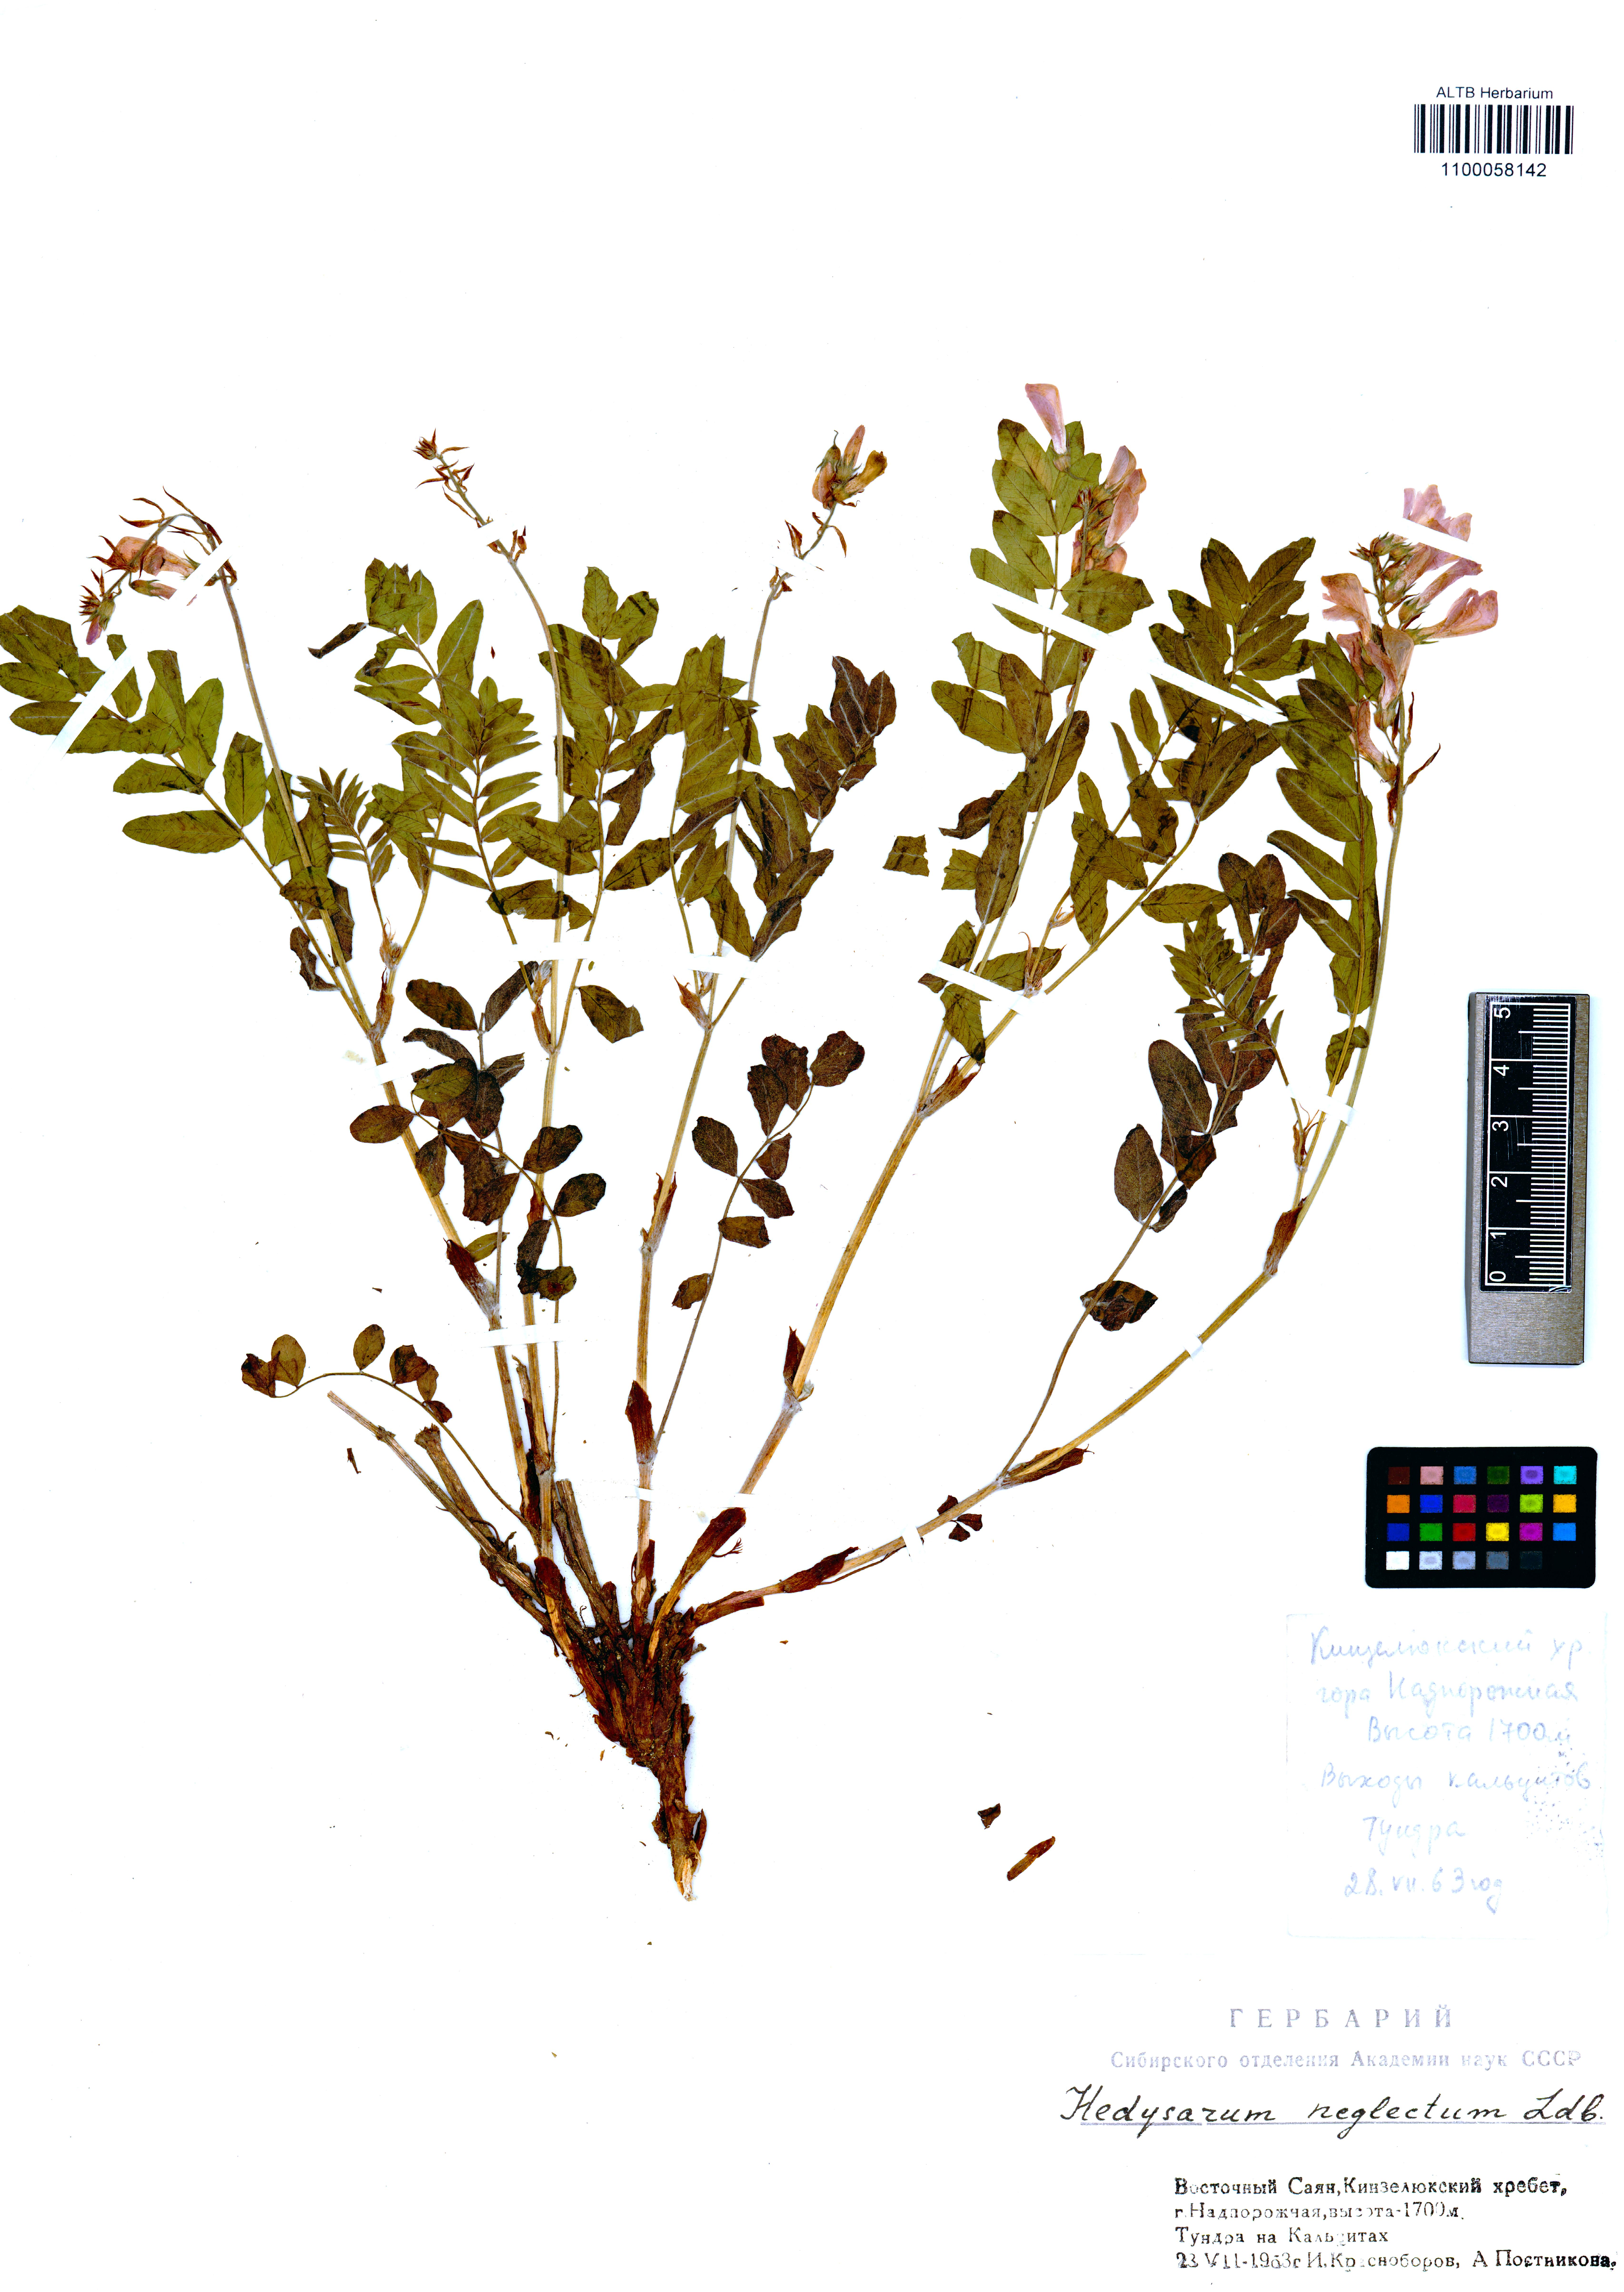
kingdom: Plantae
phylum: Tracheophyta
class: Magnoliopsida
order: Fabales
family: Fabaceae
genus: Hedysarum
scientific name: Hedysarum neglectum
